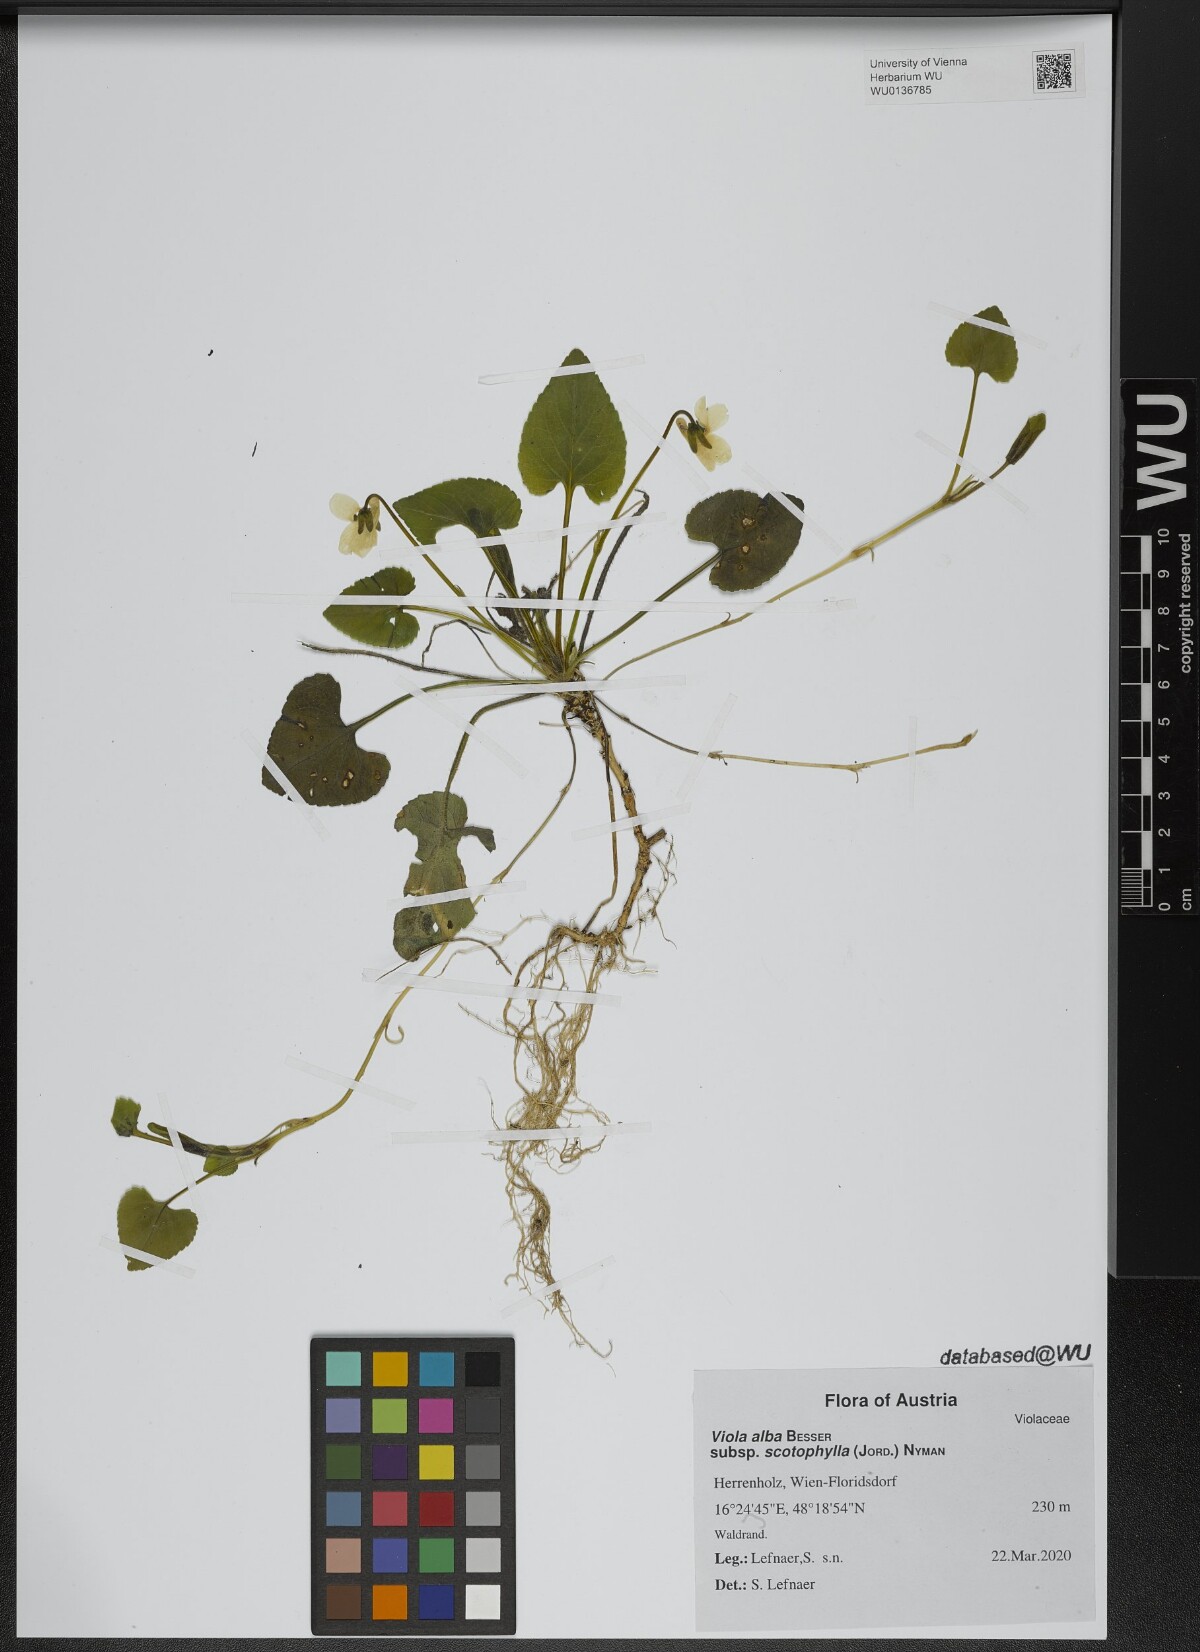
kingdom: Plantae
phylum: Tracheophyta
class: Magnoliopsida
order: Malpighiales
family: Violaceae
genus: Viola
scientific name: Viola alba
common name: White violet
